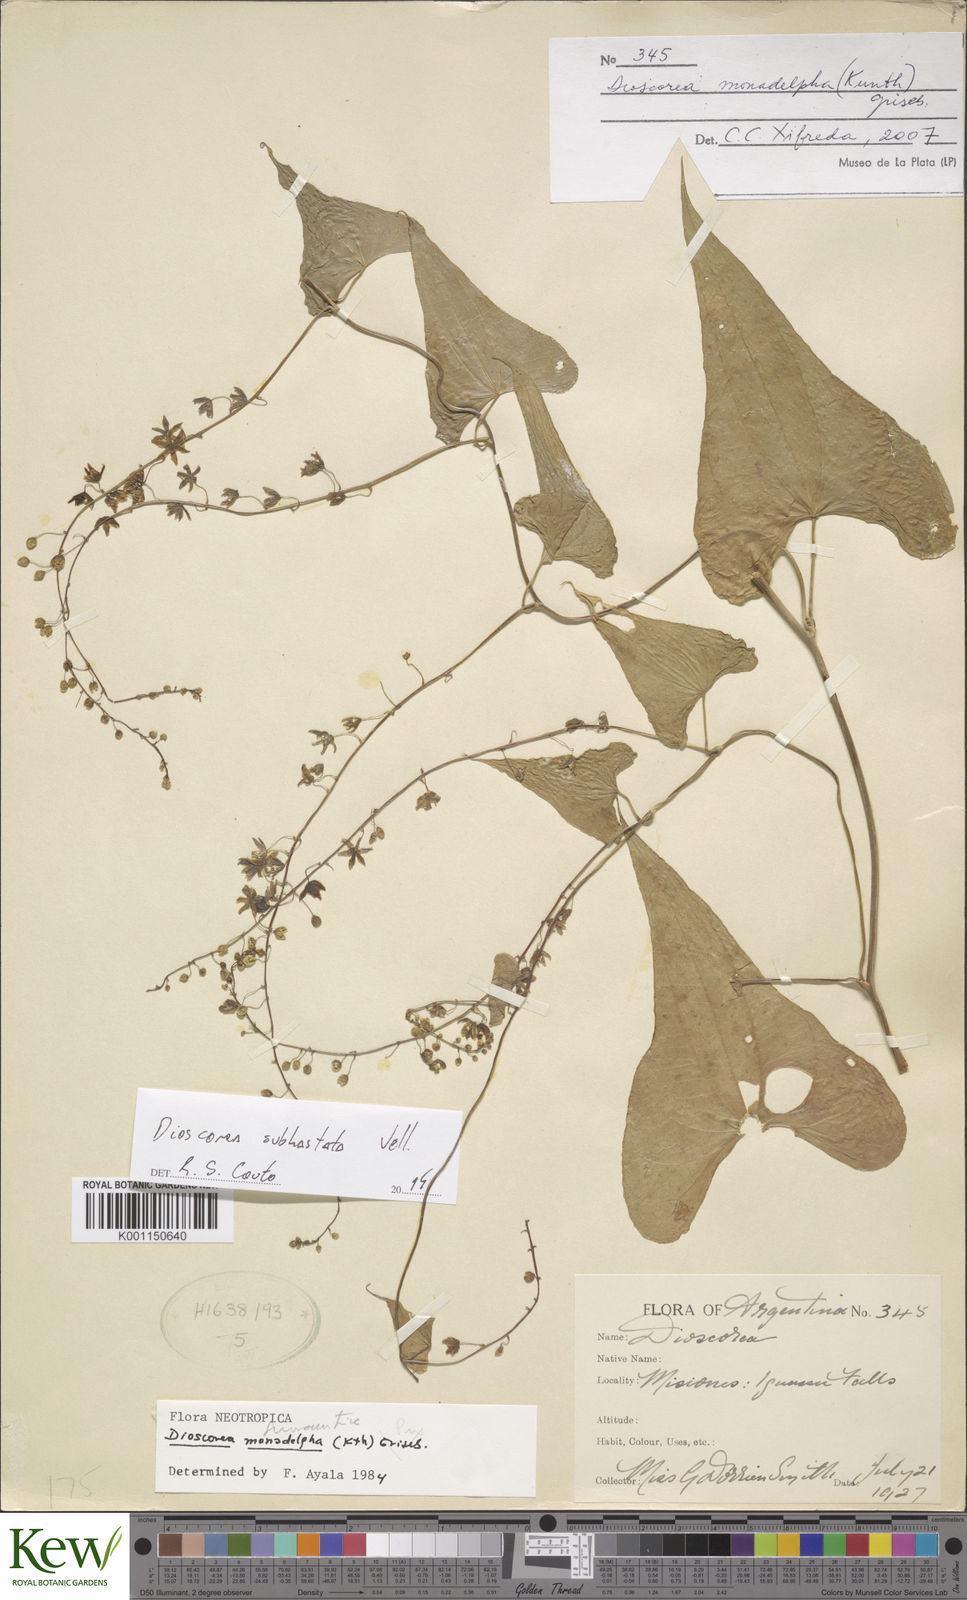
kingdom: Plantae
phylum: Tracheophyta
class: Liliopsida
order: Dioscoreales
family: Dioscoreaceae
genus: Dioscorea
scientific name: Dioscorea cienegensis
